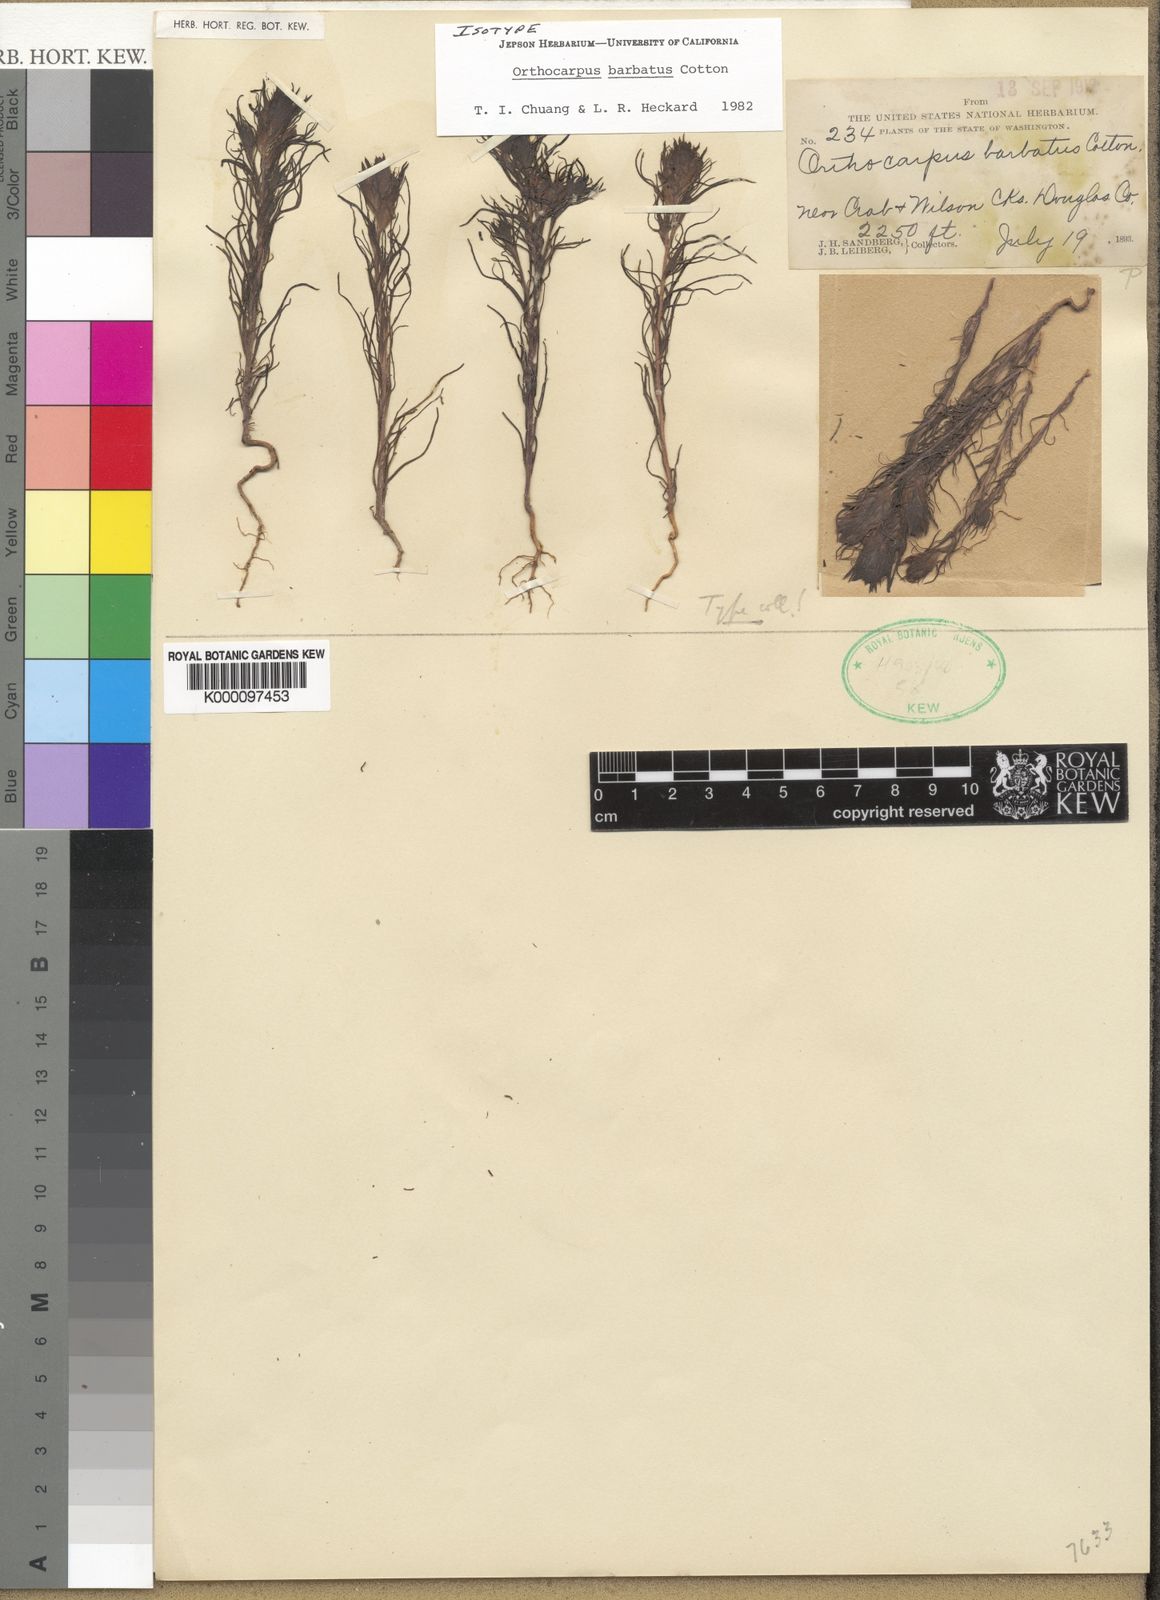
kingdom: Plantae
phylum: Tracheophyta
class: Magnoliopsida
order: Lamiales
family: Orobanchaceae
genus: Orthocarpus
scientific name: Orthocarpus barbatus
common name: Grand coulee owl's-clover
